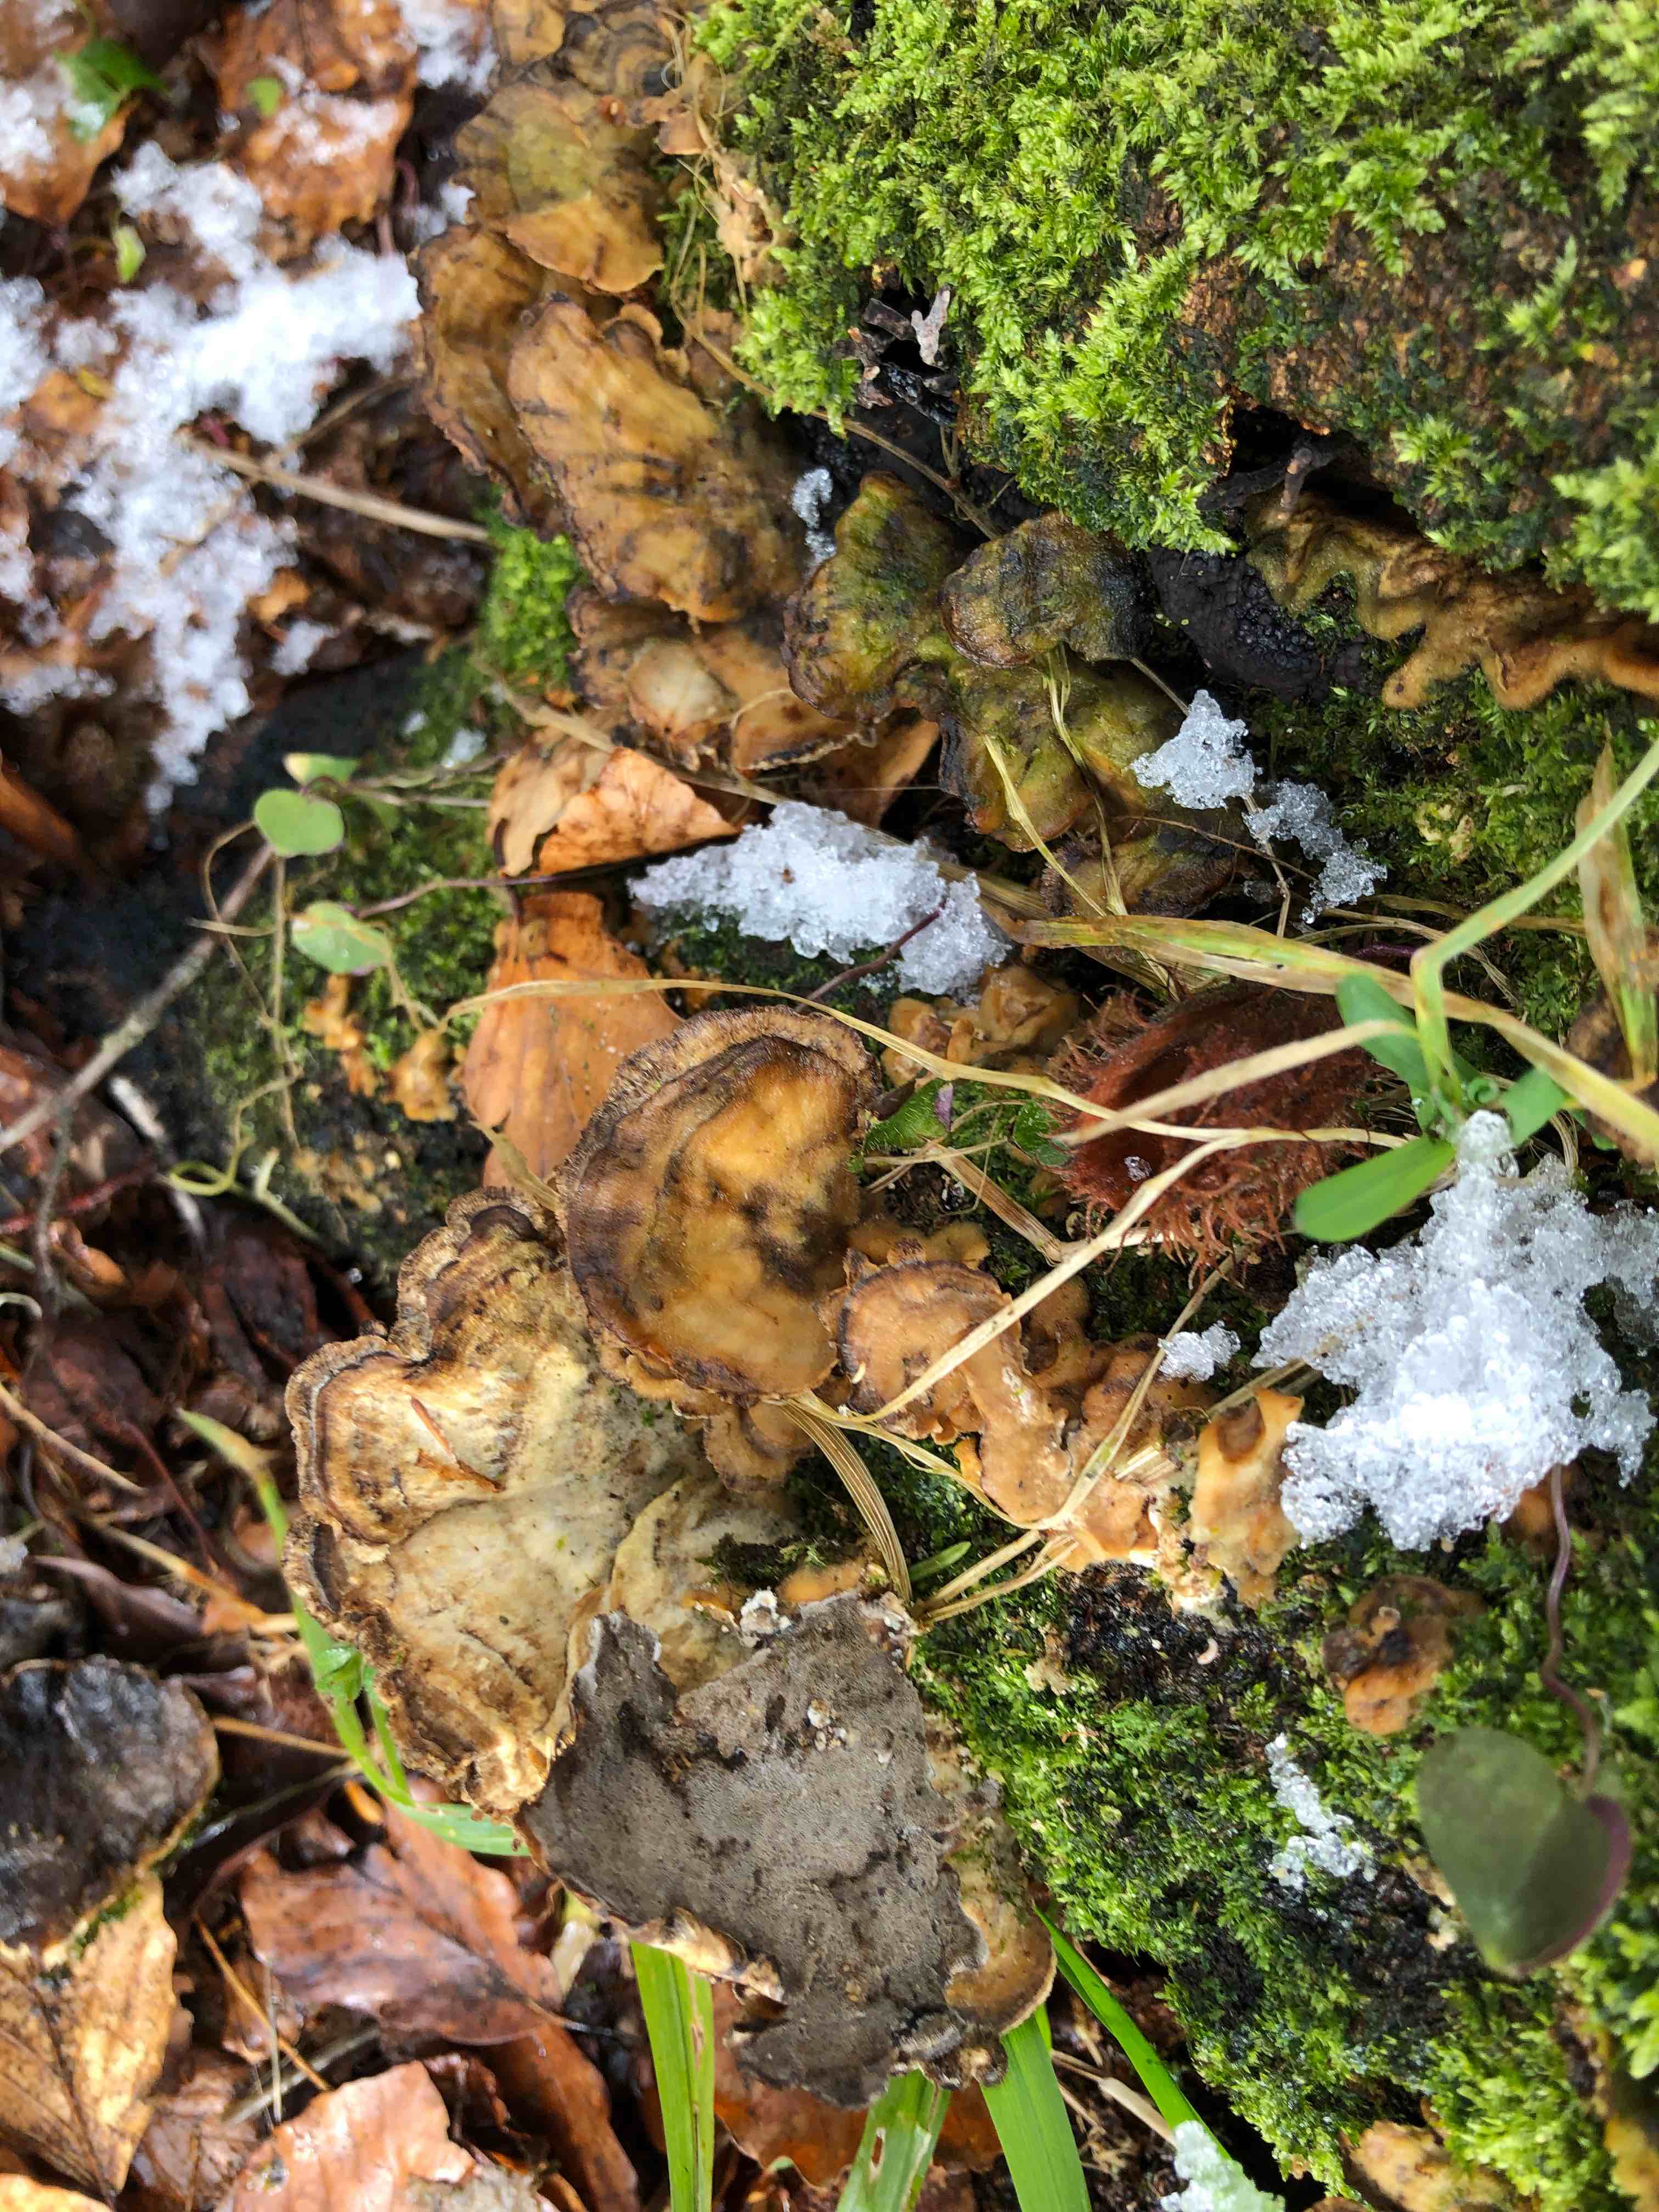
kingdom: Fungi
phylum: Basidiomycota
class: Agaricomycetes
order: Polyporales
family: Phanerochaetaceae
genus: Bjerkandera
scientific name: Bjerkandera adusta
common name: sveden sodporesvamp
